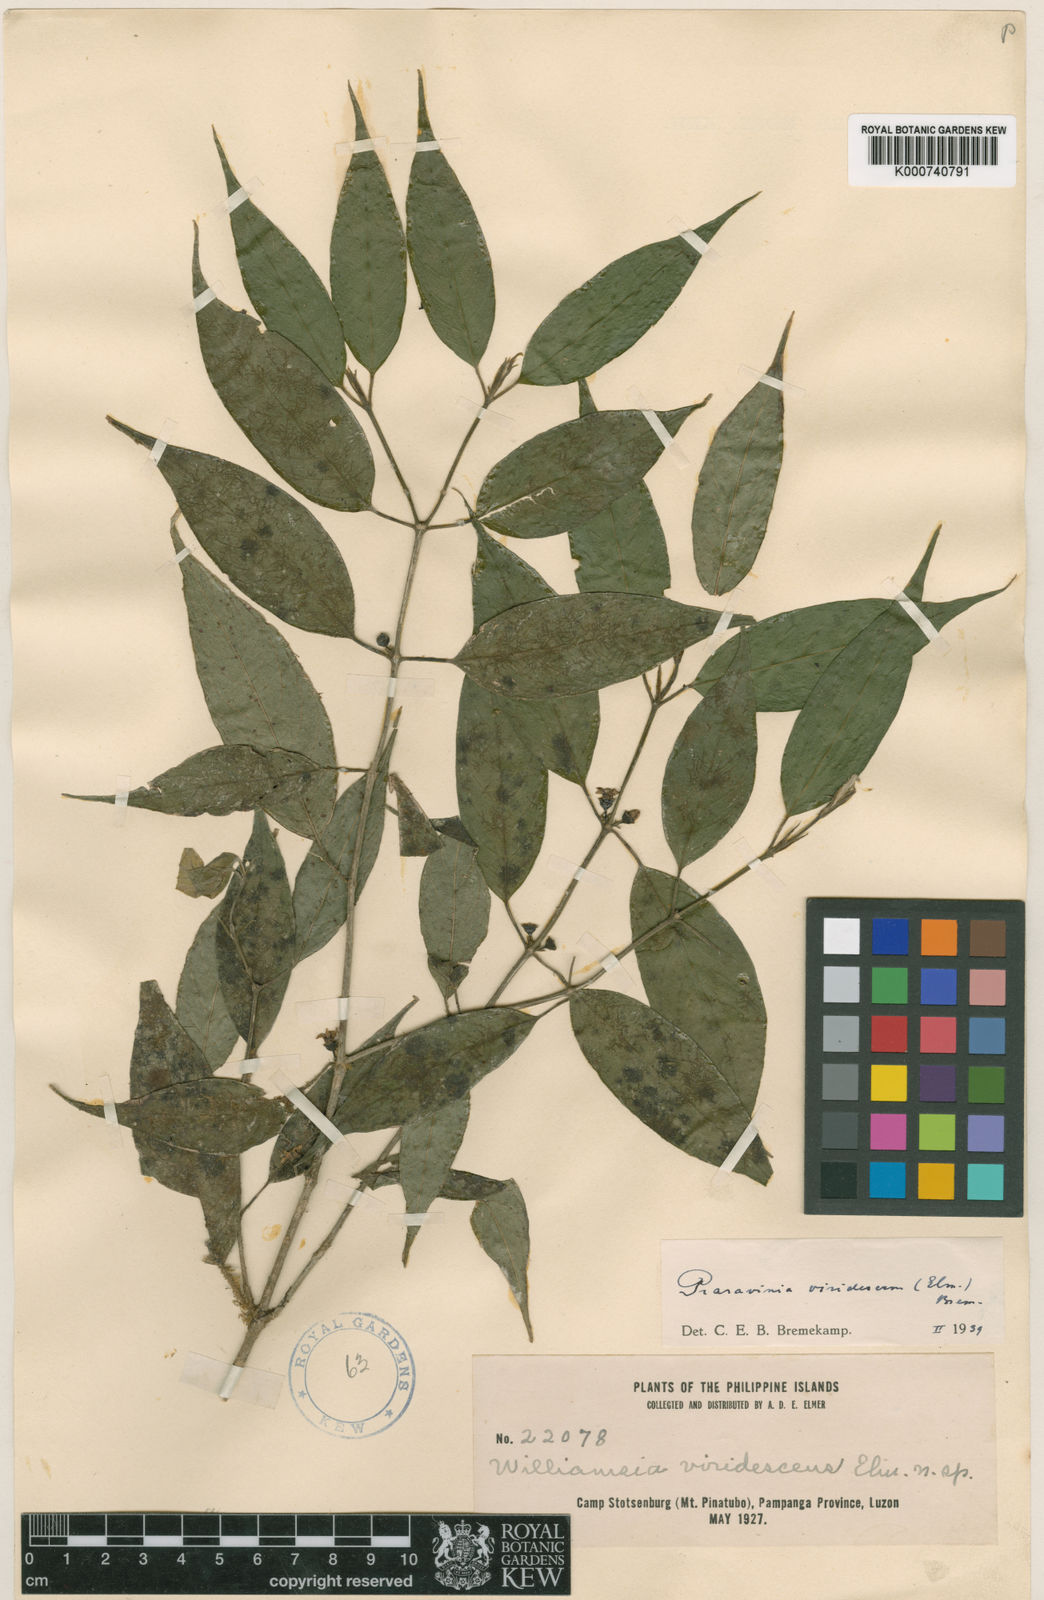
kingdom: Plantae
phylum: Tracheophyta
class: Magnoliopsida
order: Gentianales
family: Rubiaceae
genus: Praravinia
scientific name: Praravinia viridescens
